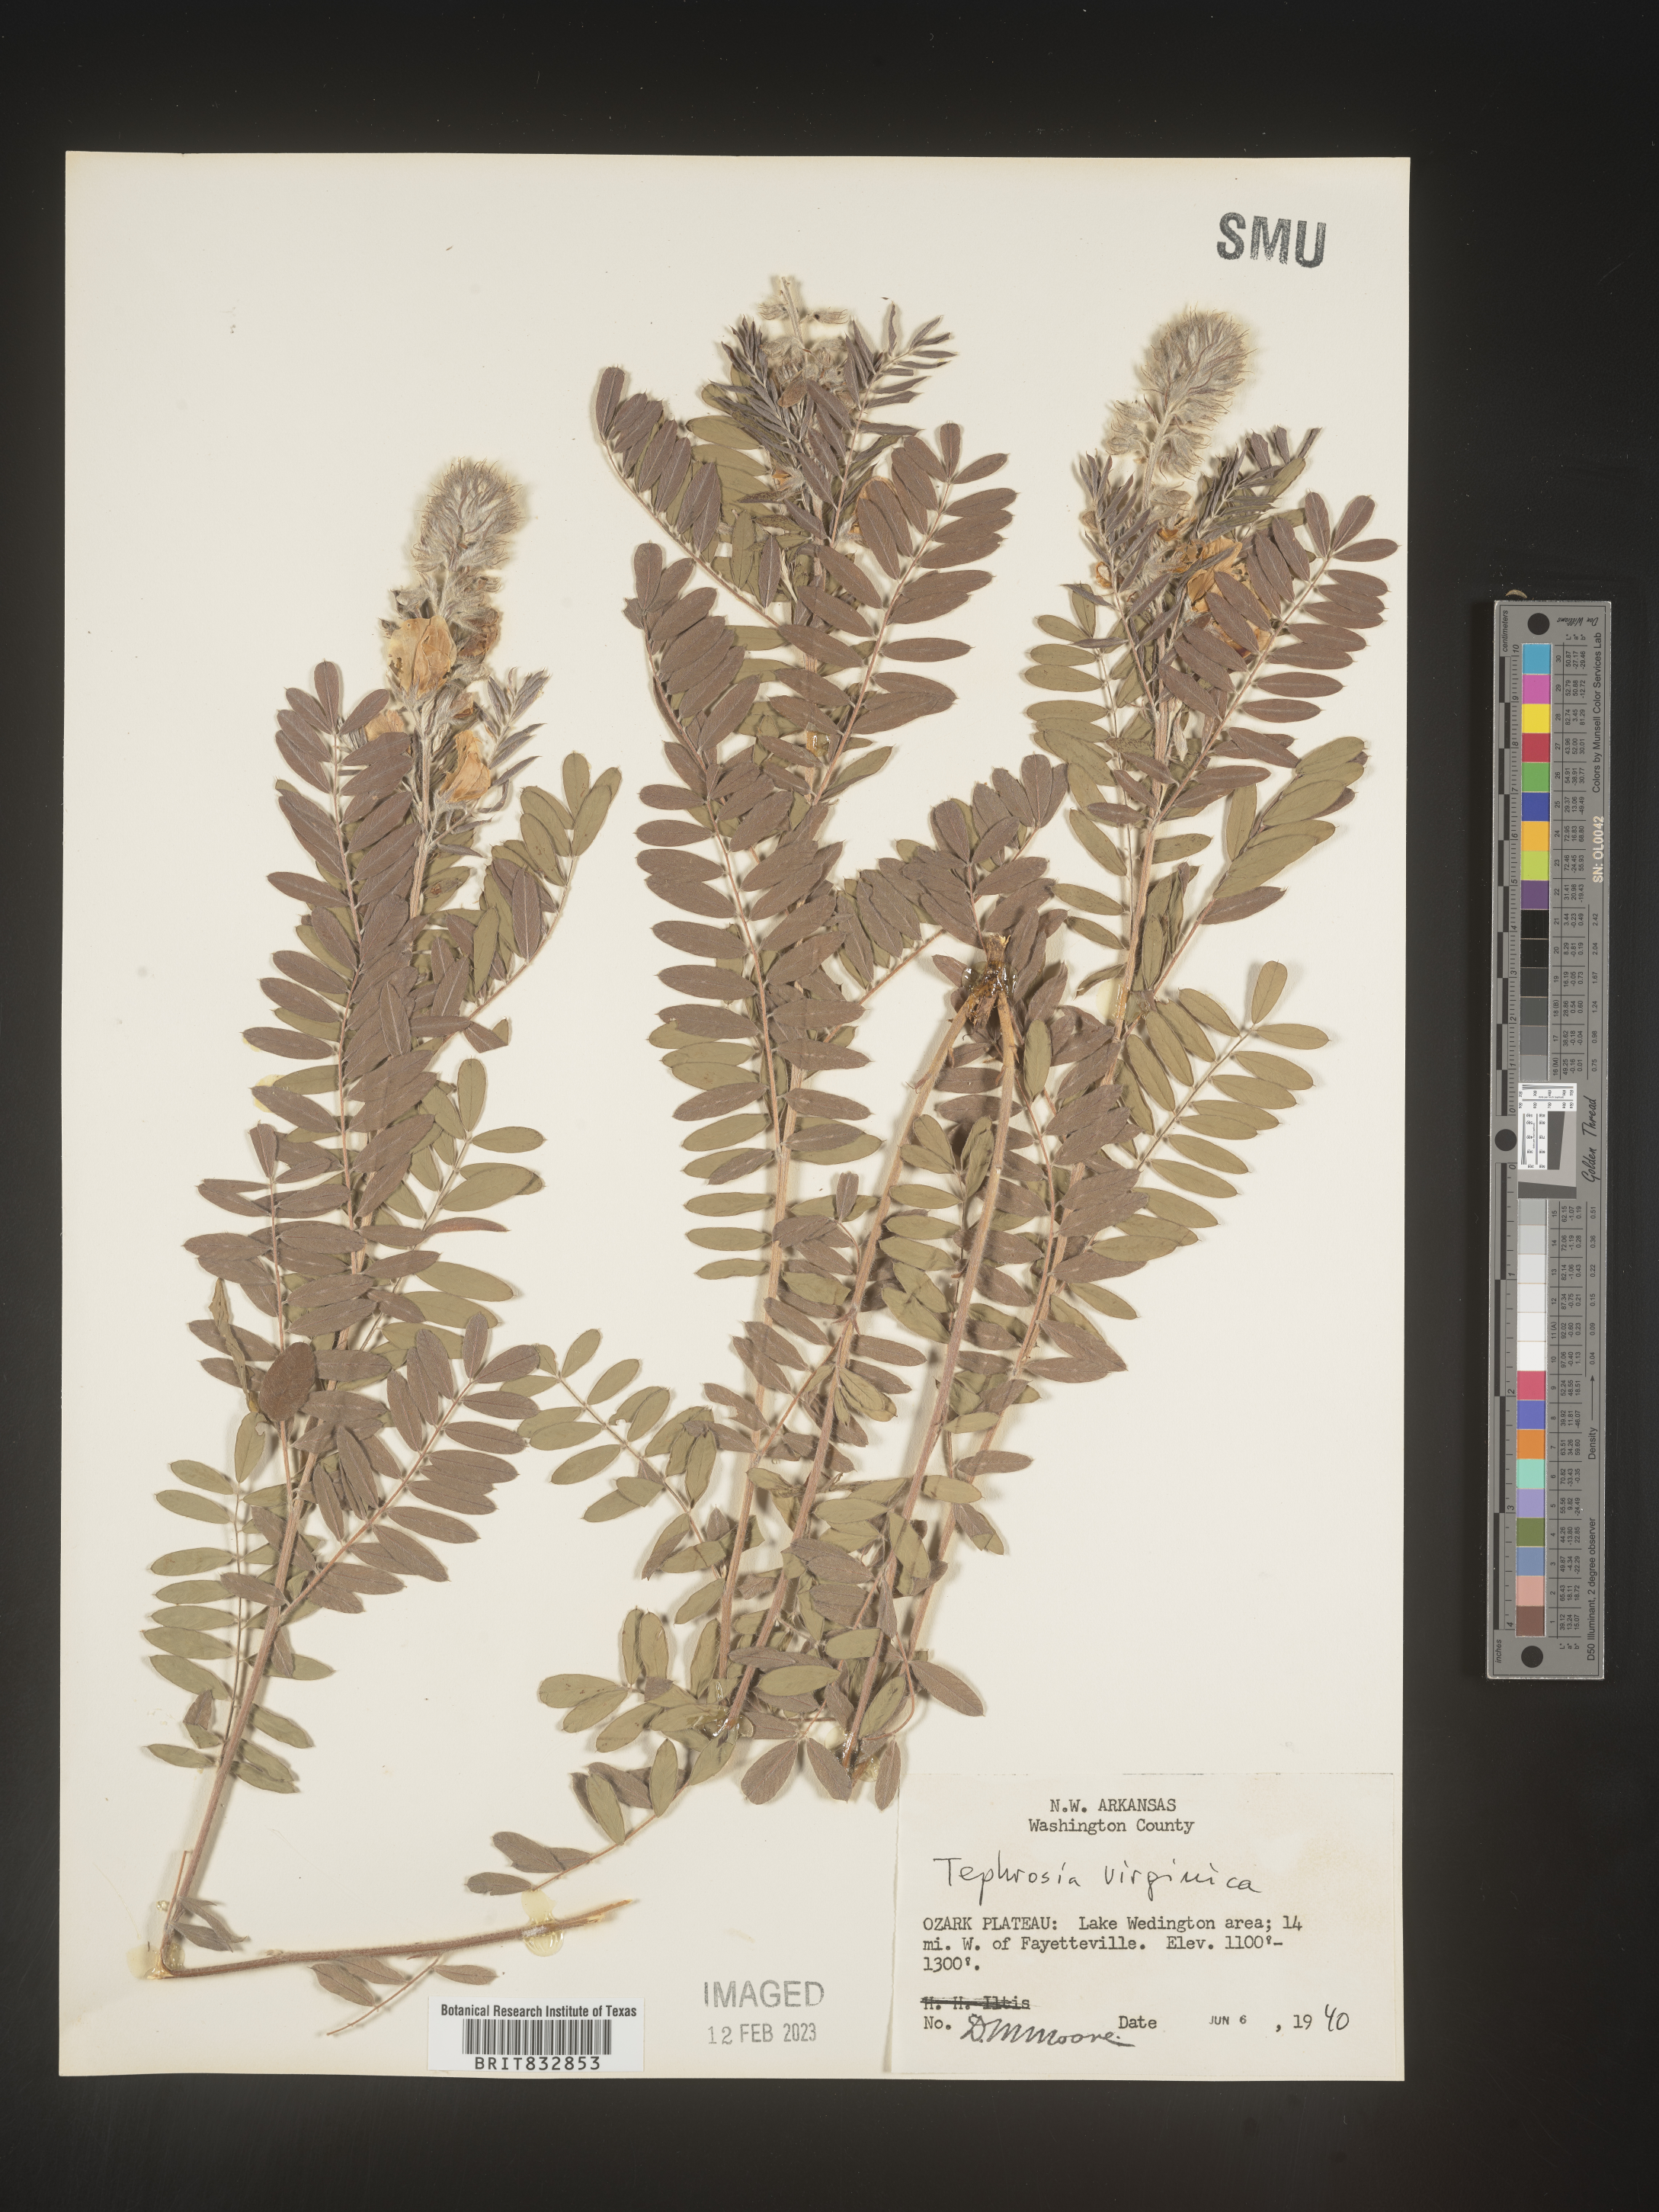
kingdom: Plantae
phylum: Tracheophyta
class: Magnoliopsida
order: Fabales
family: Fabaceae
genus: Tephrosia
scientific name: Tephrosia virginiana
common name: Rabbit-pea
